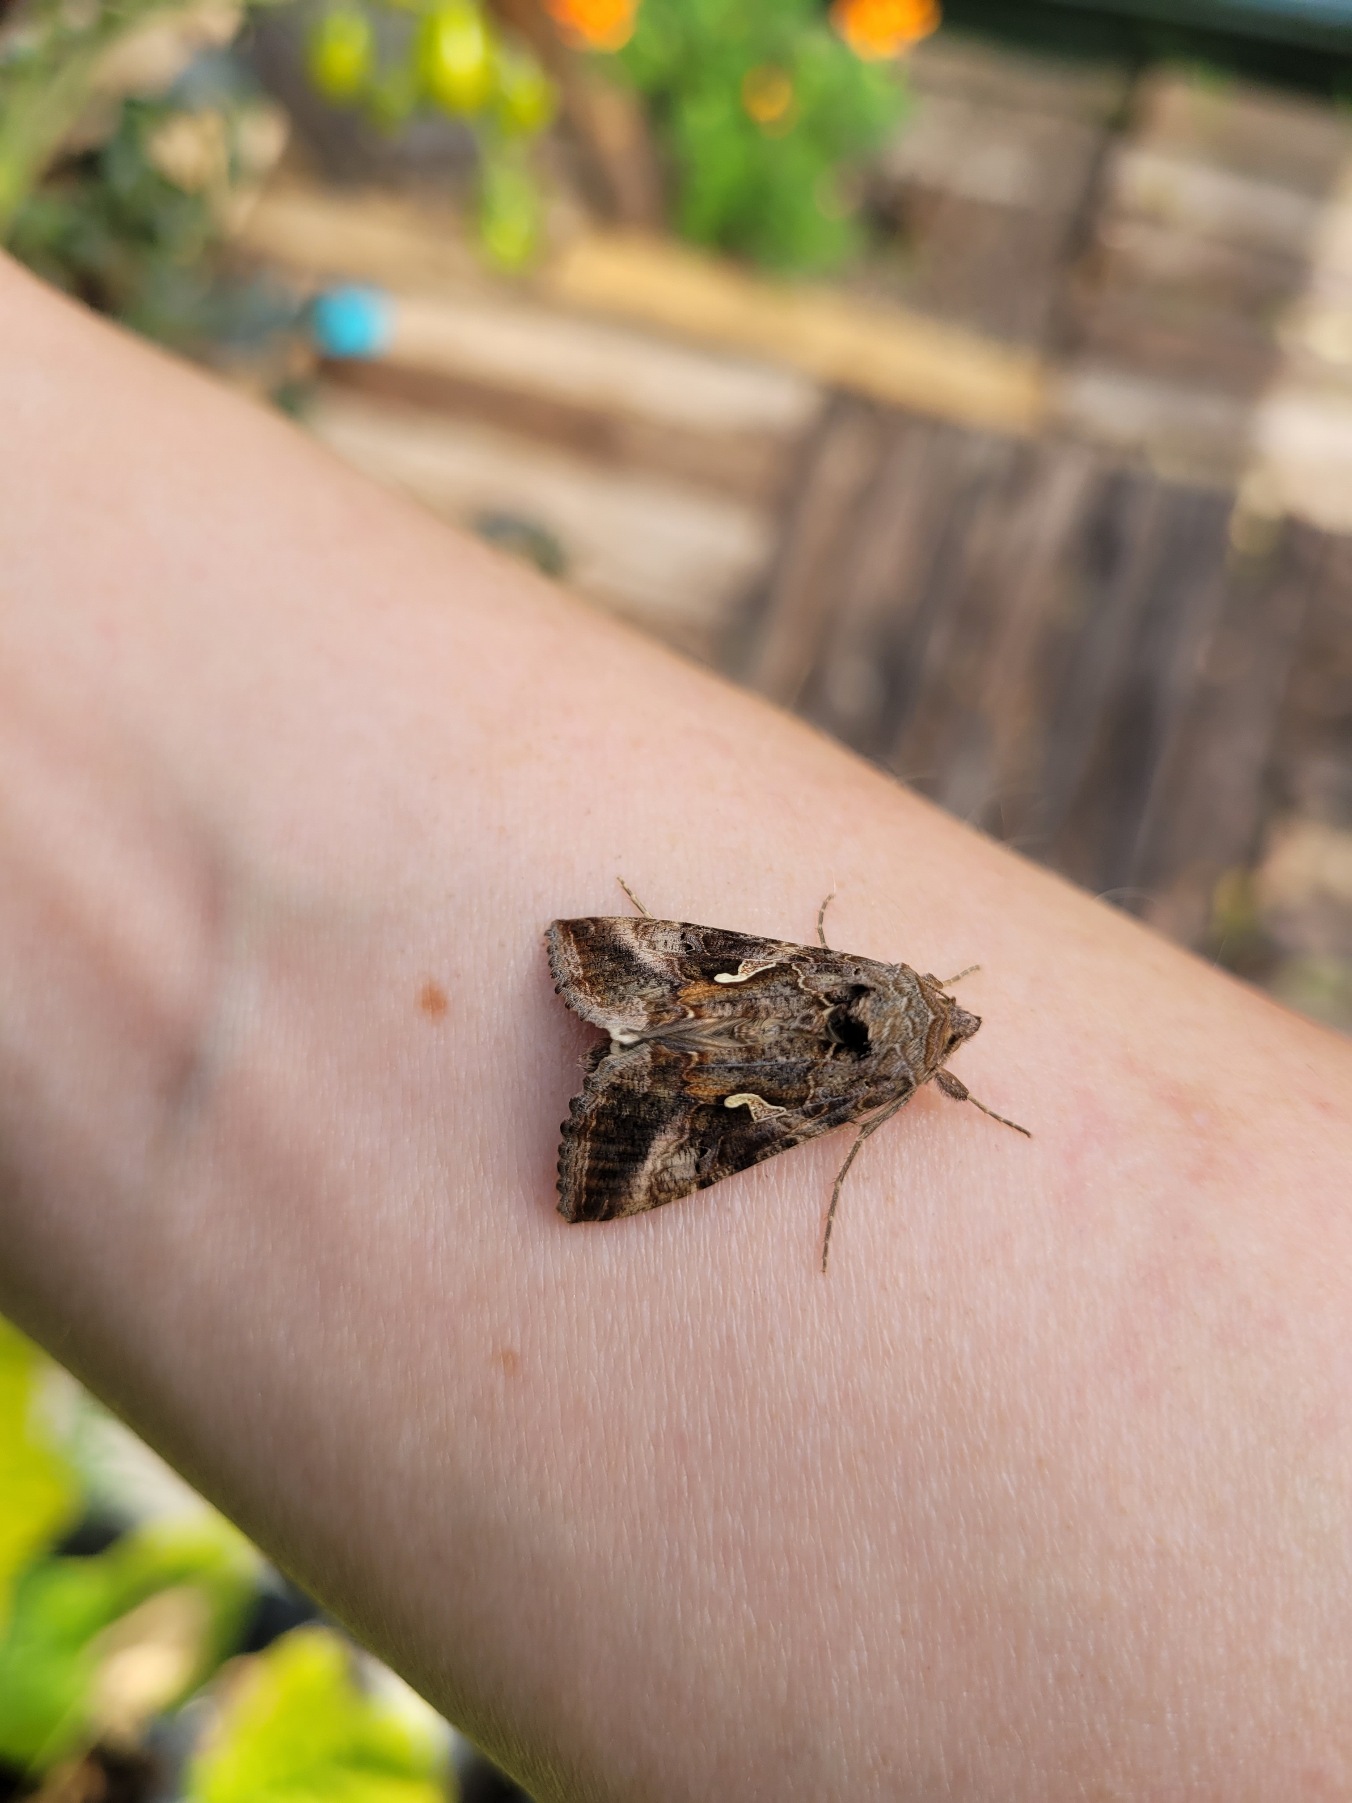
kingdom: Animalia
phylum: Arthropoda
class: Insecta
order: Lepidoptera
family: Noctuidae
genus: Autographa
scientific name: Autographa gamma
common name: Gammaugle
